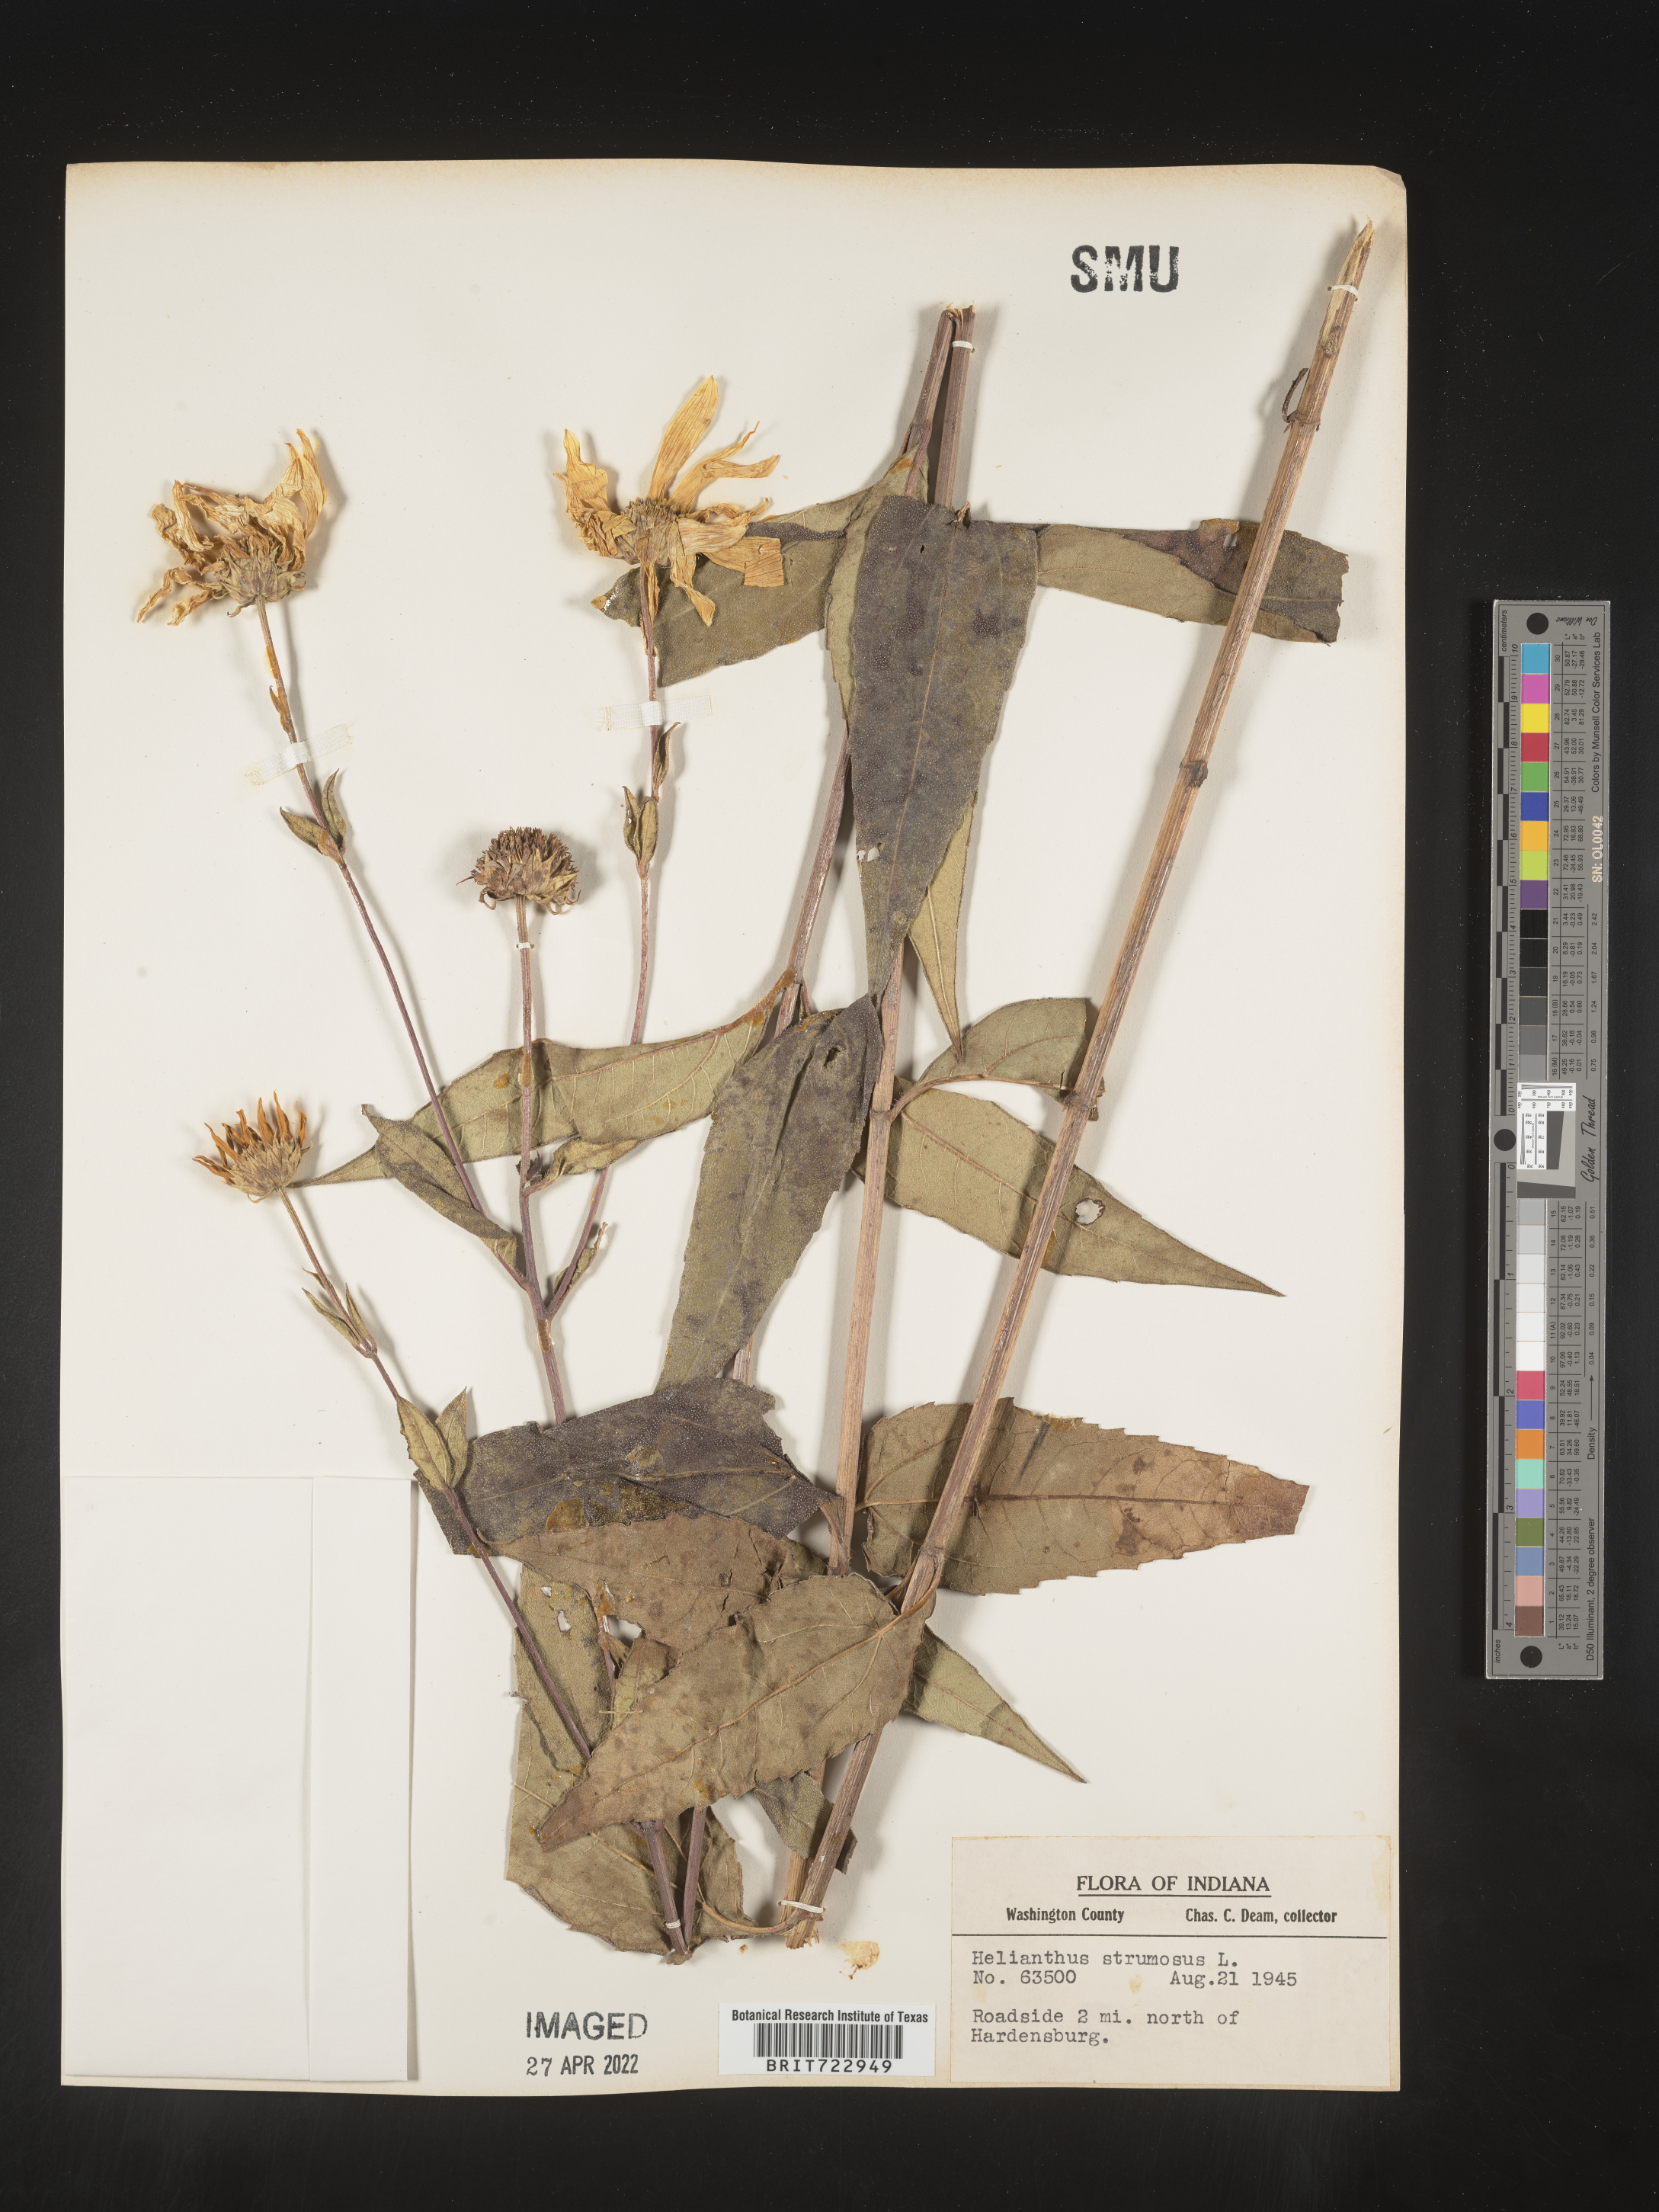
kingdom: Plantae
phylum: Tracheophyta
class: Magnoliopsida
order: Asterales
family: Asteraceae
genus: Helianthus
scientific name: Helianthus strumosus
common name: Pale-leaved sunflower
